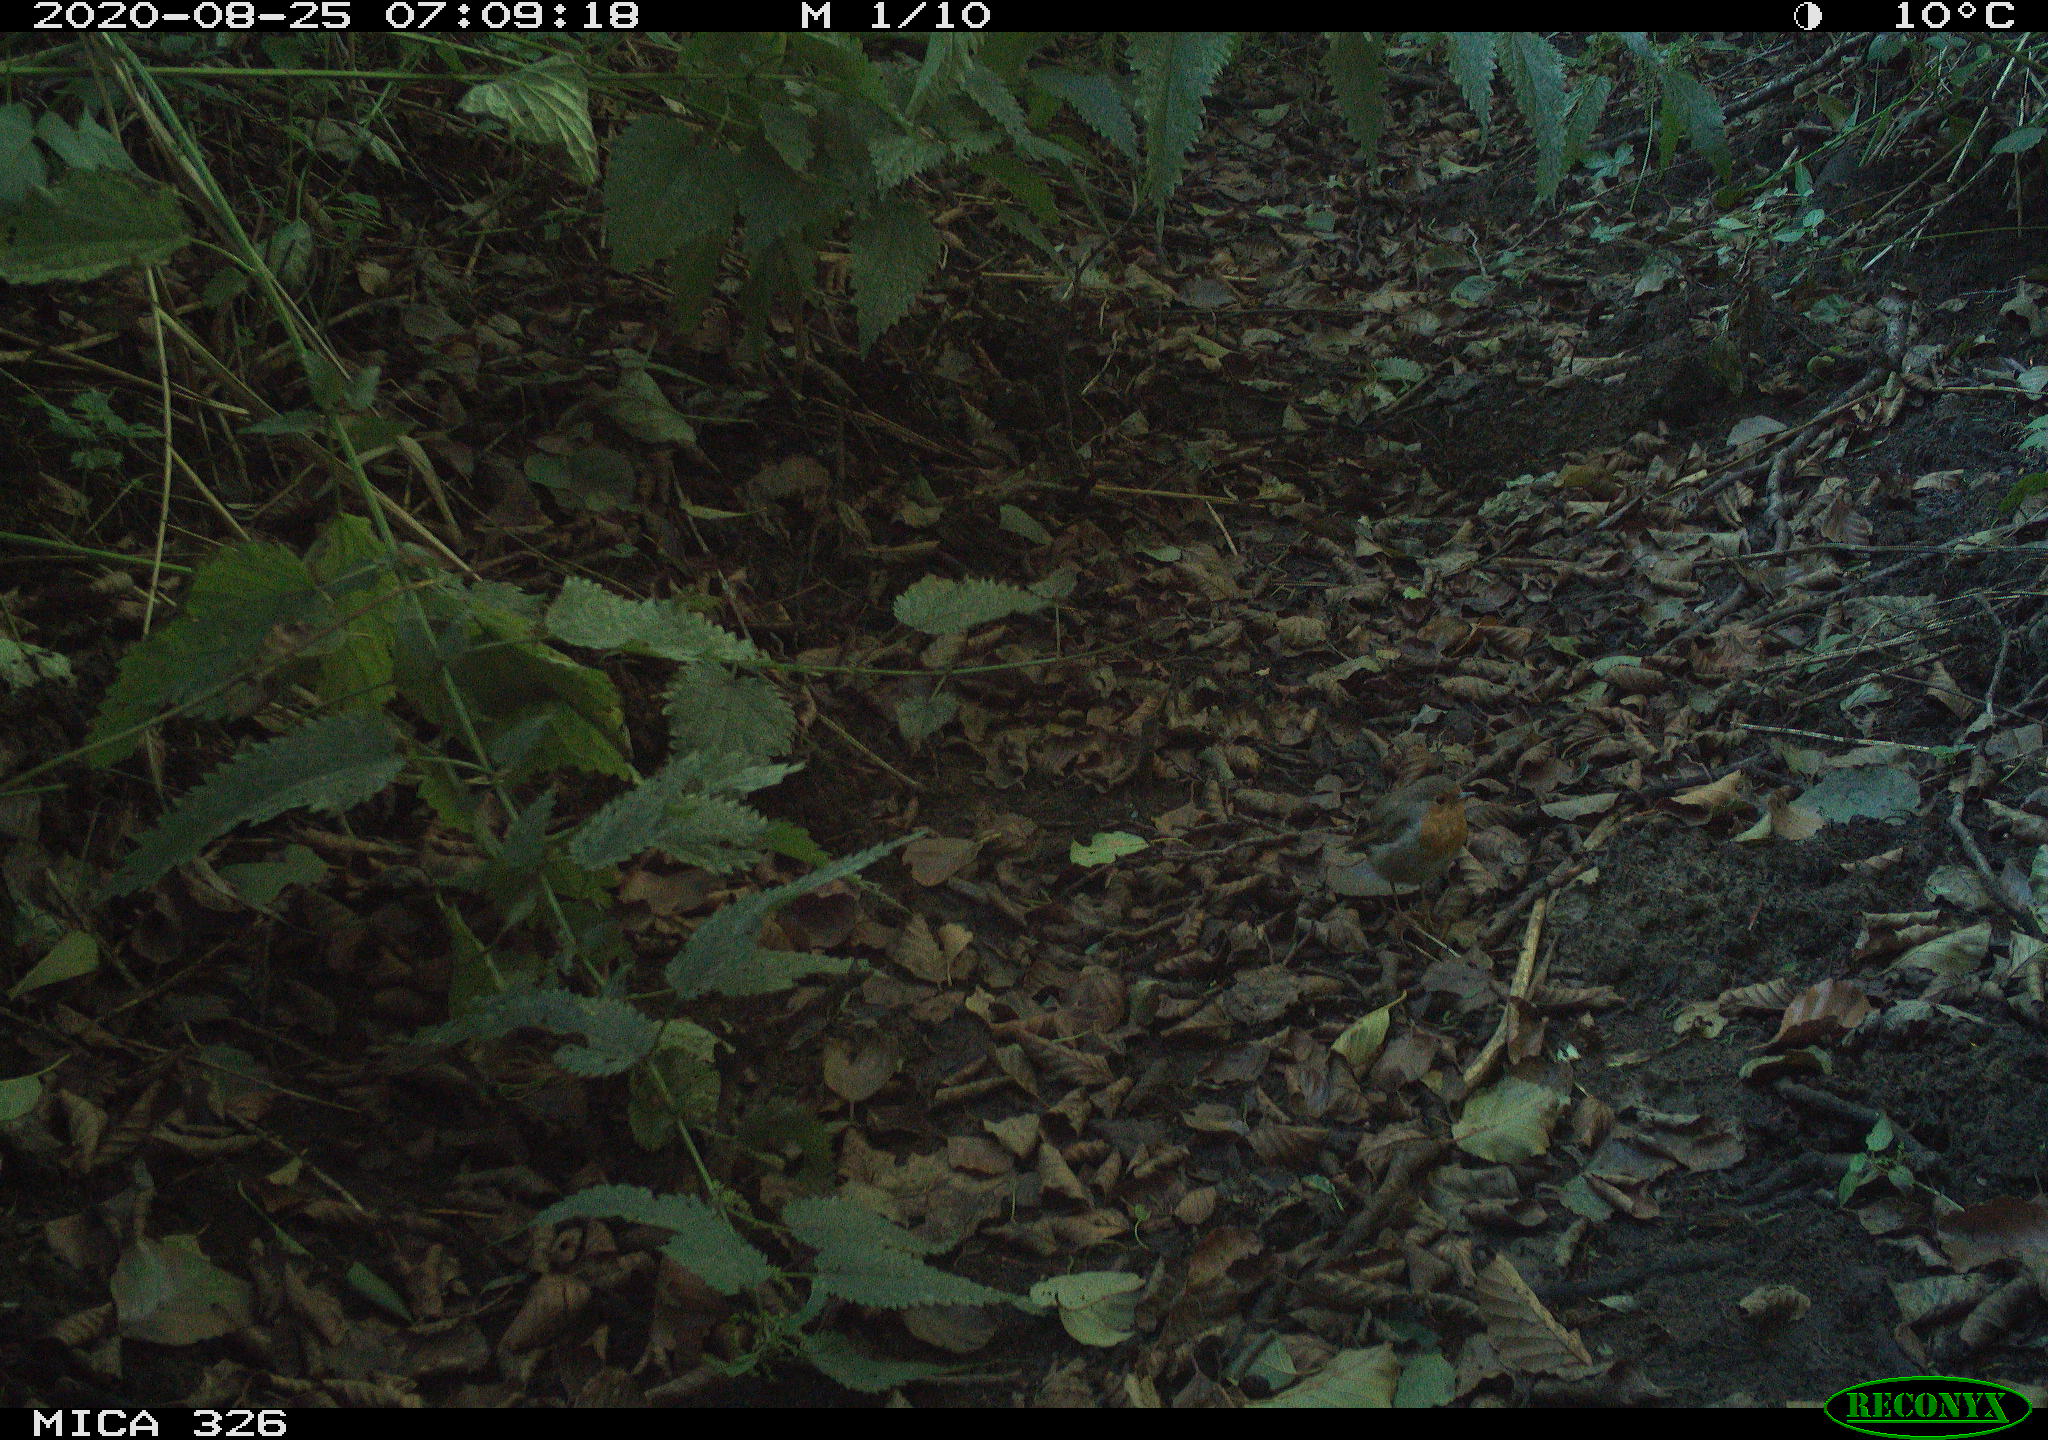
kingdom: Animalia
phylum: Chordata
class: Aves
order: Passeriformes
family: Muscicapidae
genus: Erithacus
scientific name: Erithacus rubecula
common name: European robin
